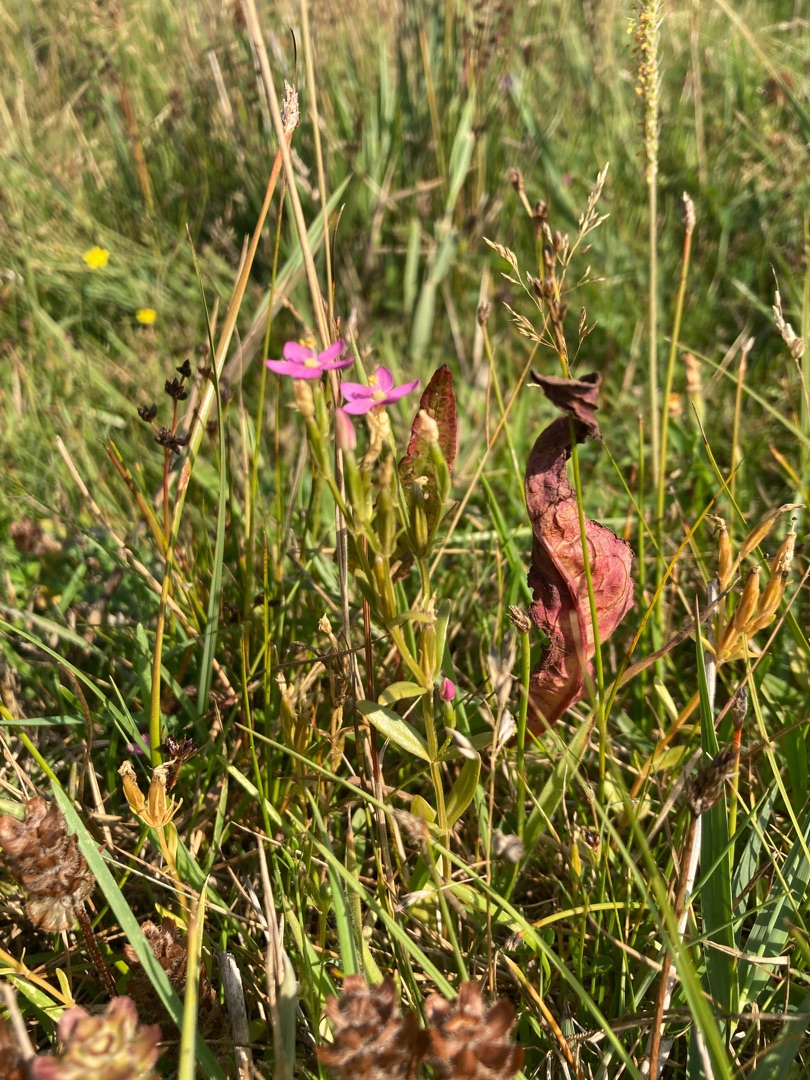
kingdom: Plantae
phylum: Tracheophyta
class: Magnoliopsida
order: Gentianales
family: Gentianaceae
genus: Centaurium
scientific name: Centaurium littorale
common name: Strand-tusindgylden
